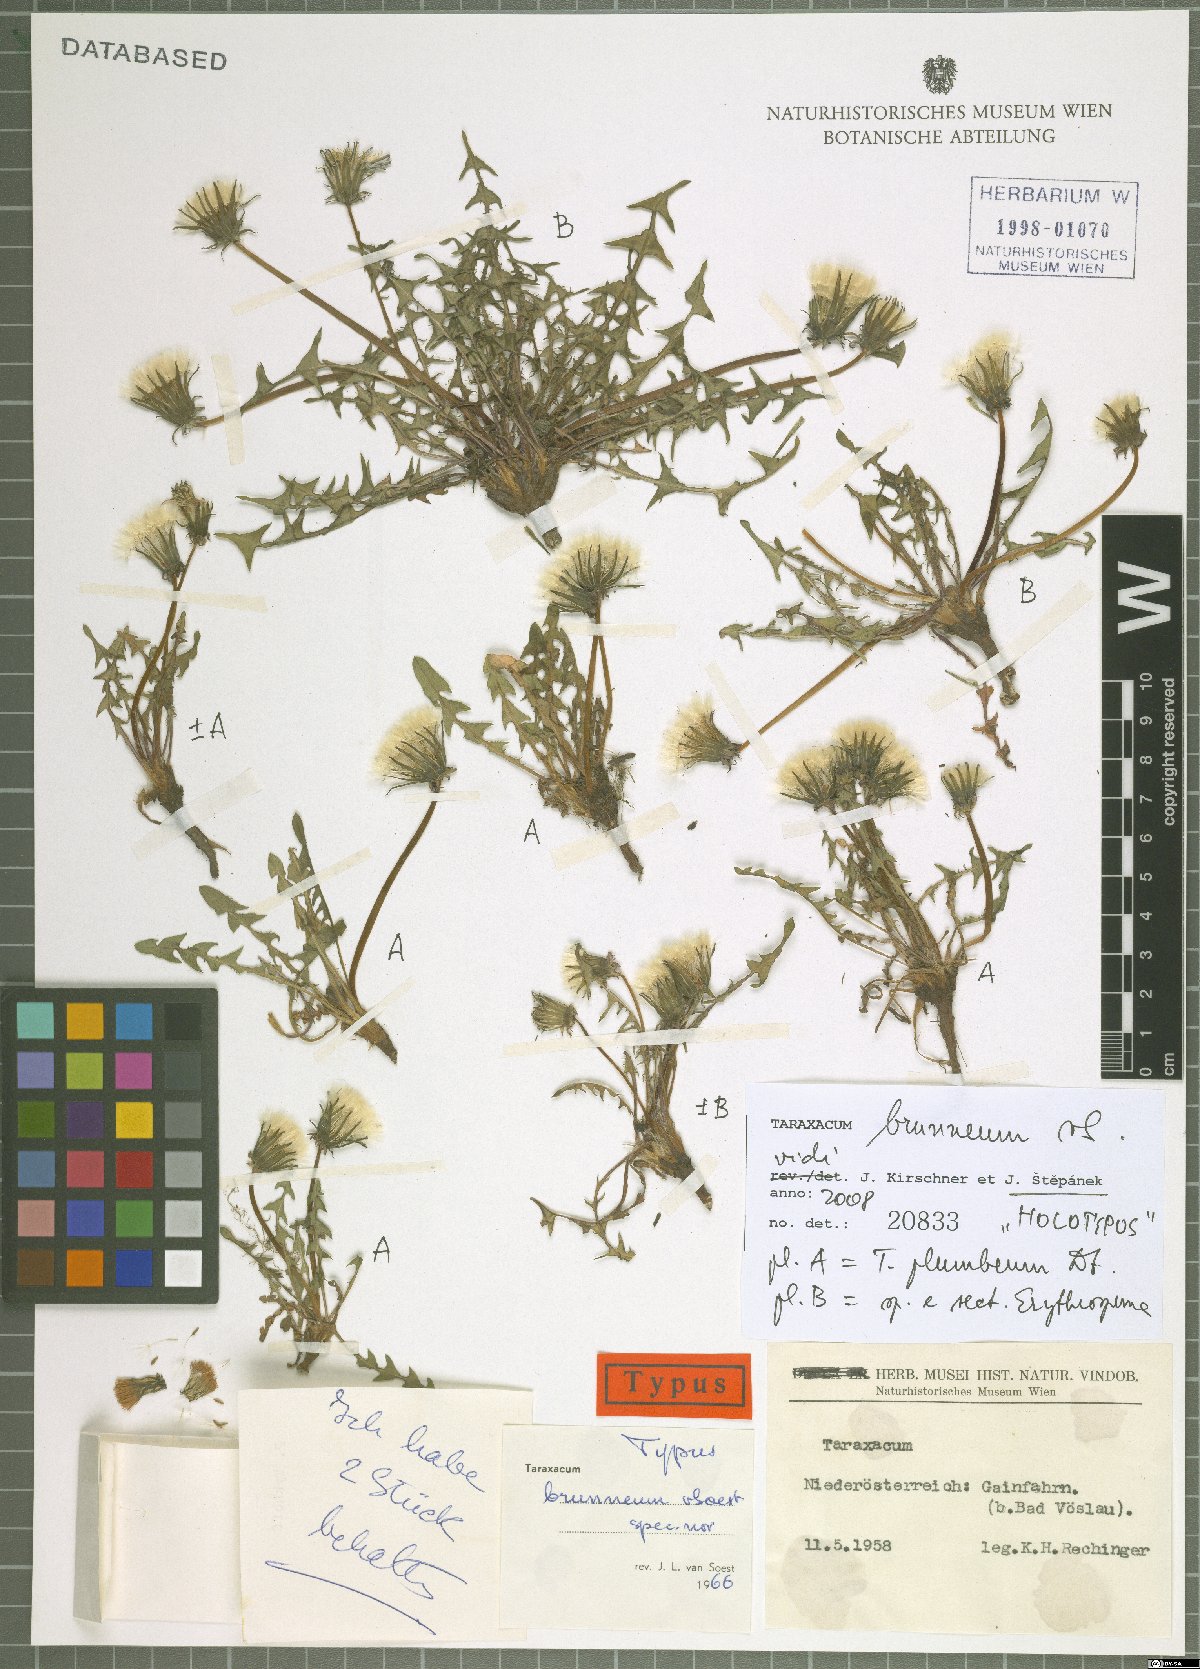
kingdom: Plantae
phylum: Tracheophyta
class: Magnoliopsida
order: Asterales
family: Asteraceae
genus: Taraxacum
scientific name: Taraxacum plumbeum
